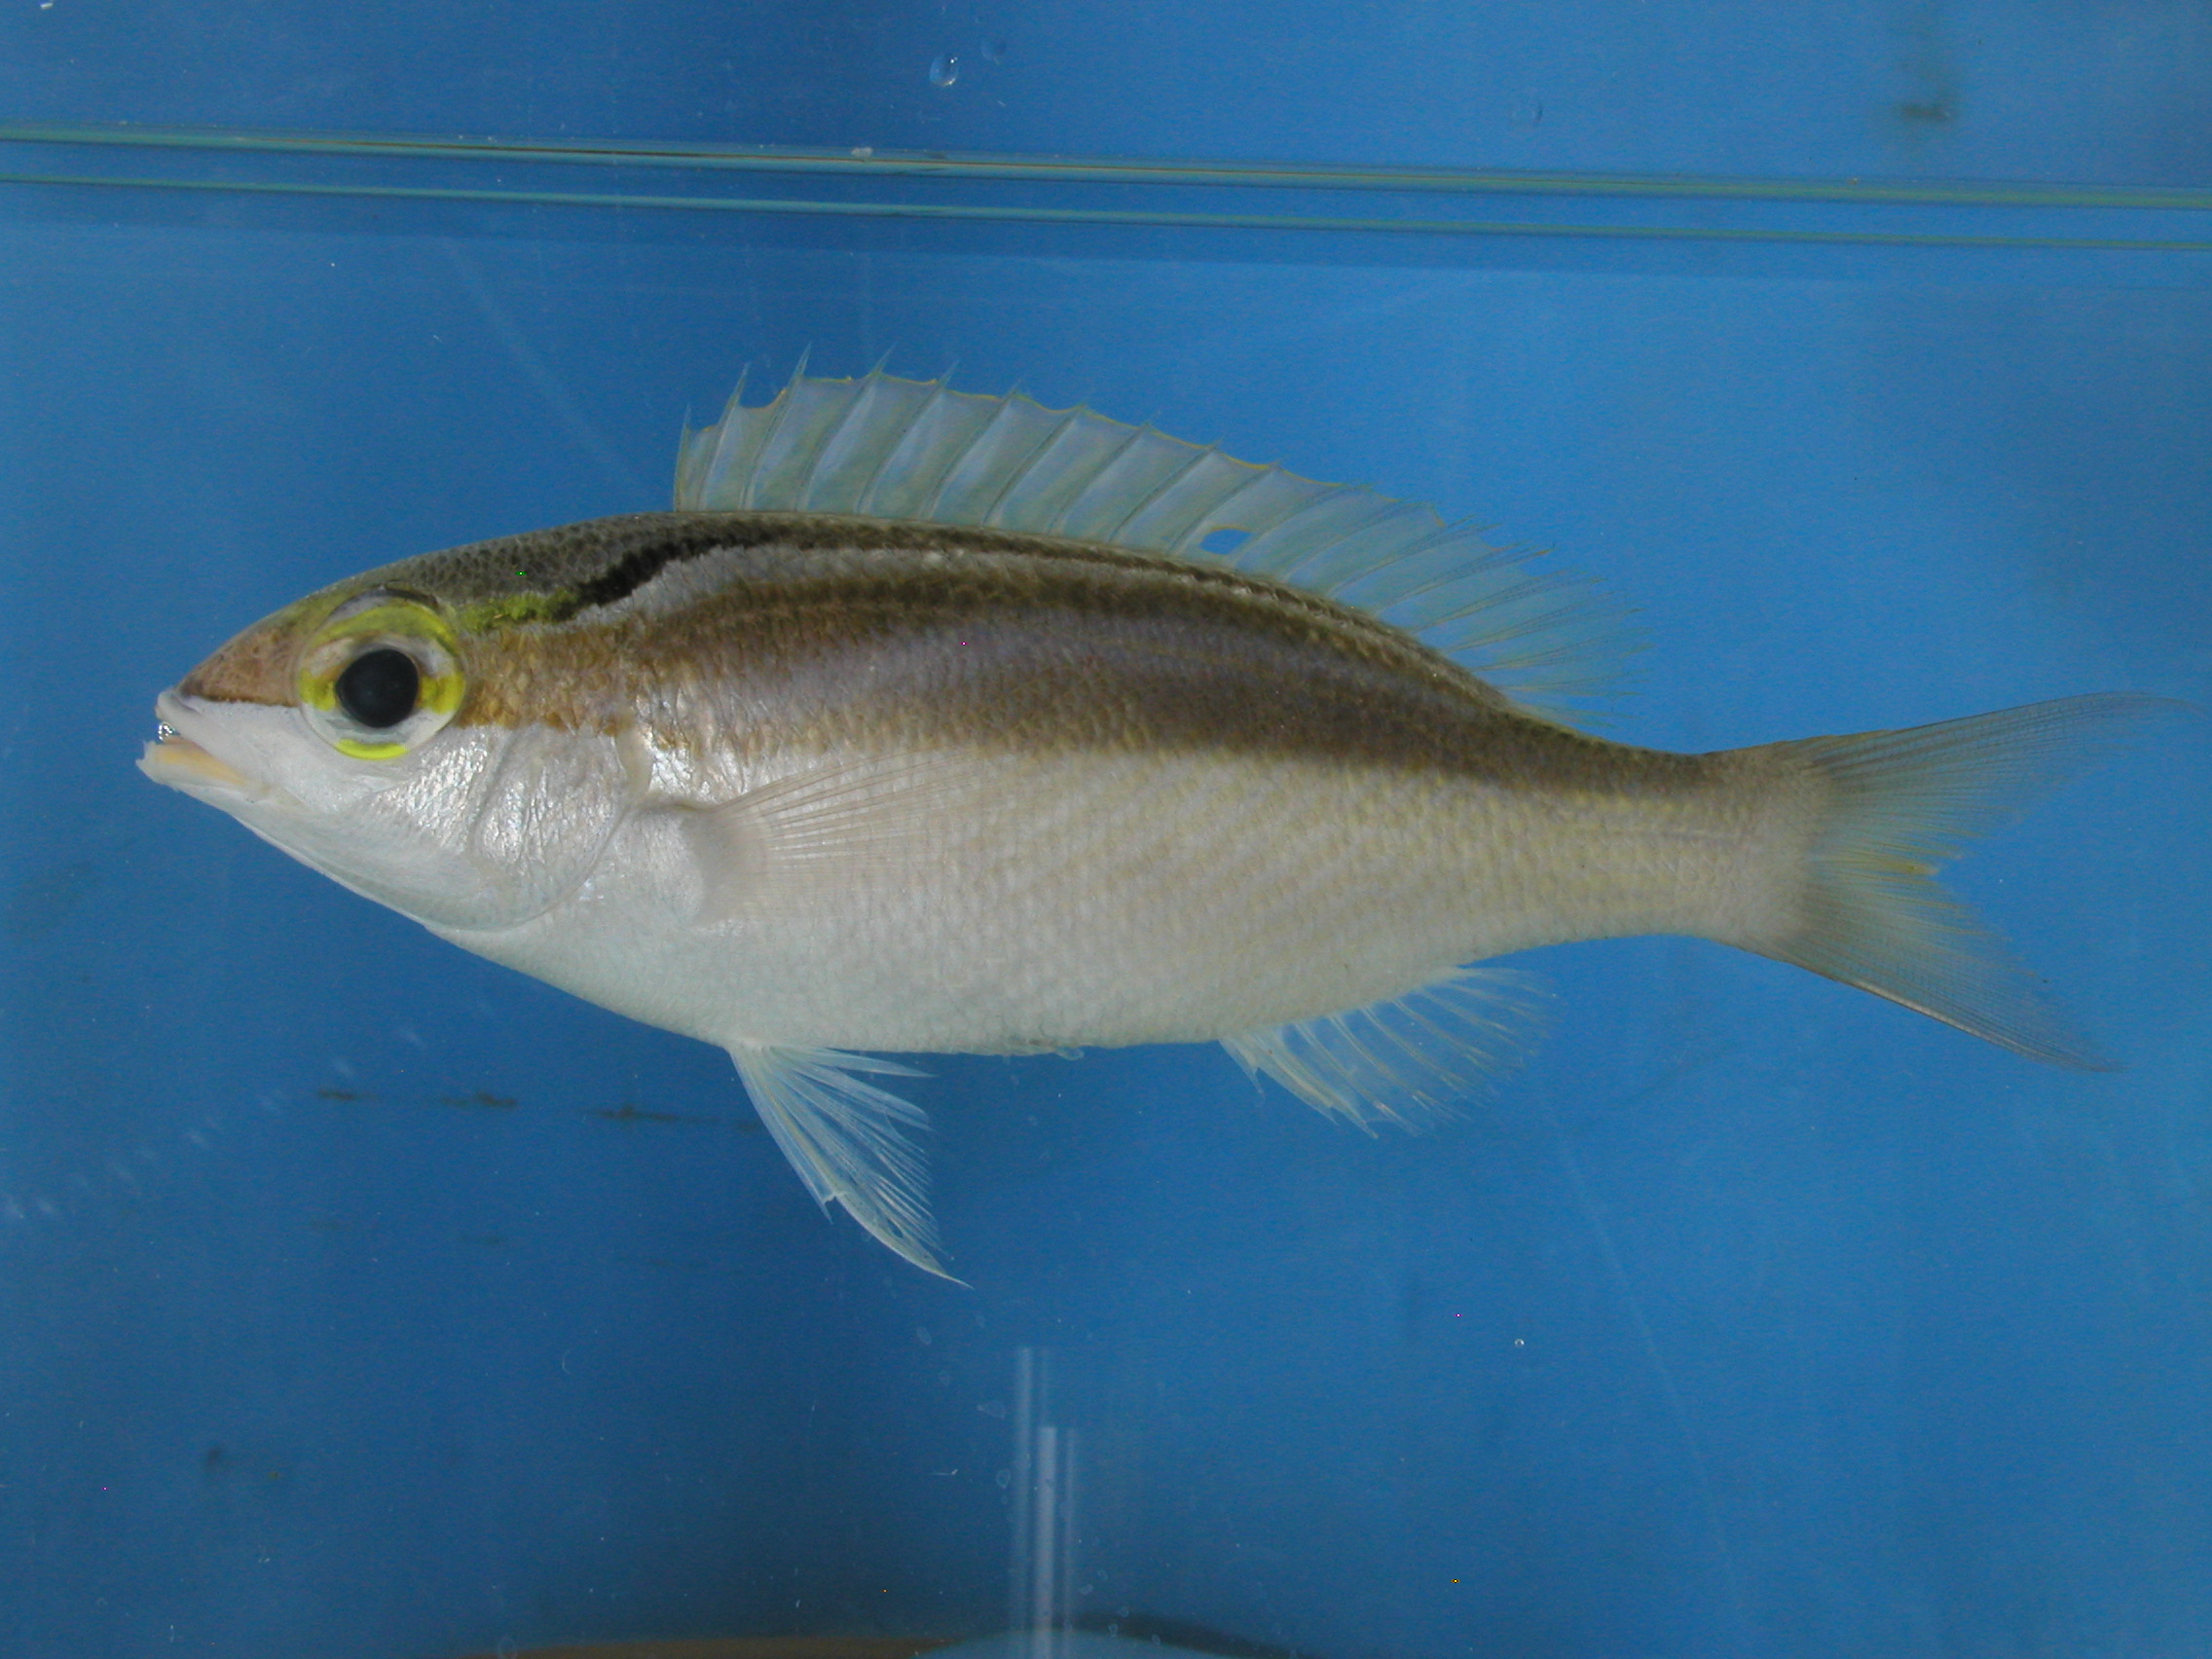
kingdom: Animalia
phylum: Chordata
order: Perciformes
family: Nemipteridae
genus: Scolopsis
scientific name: Scolopsis frenata
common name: Bridled monocle bream
